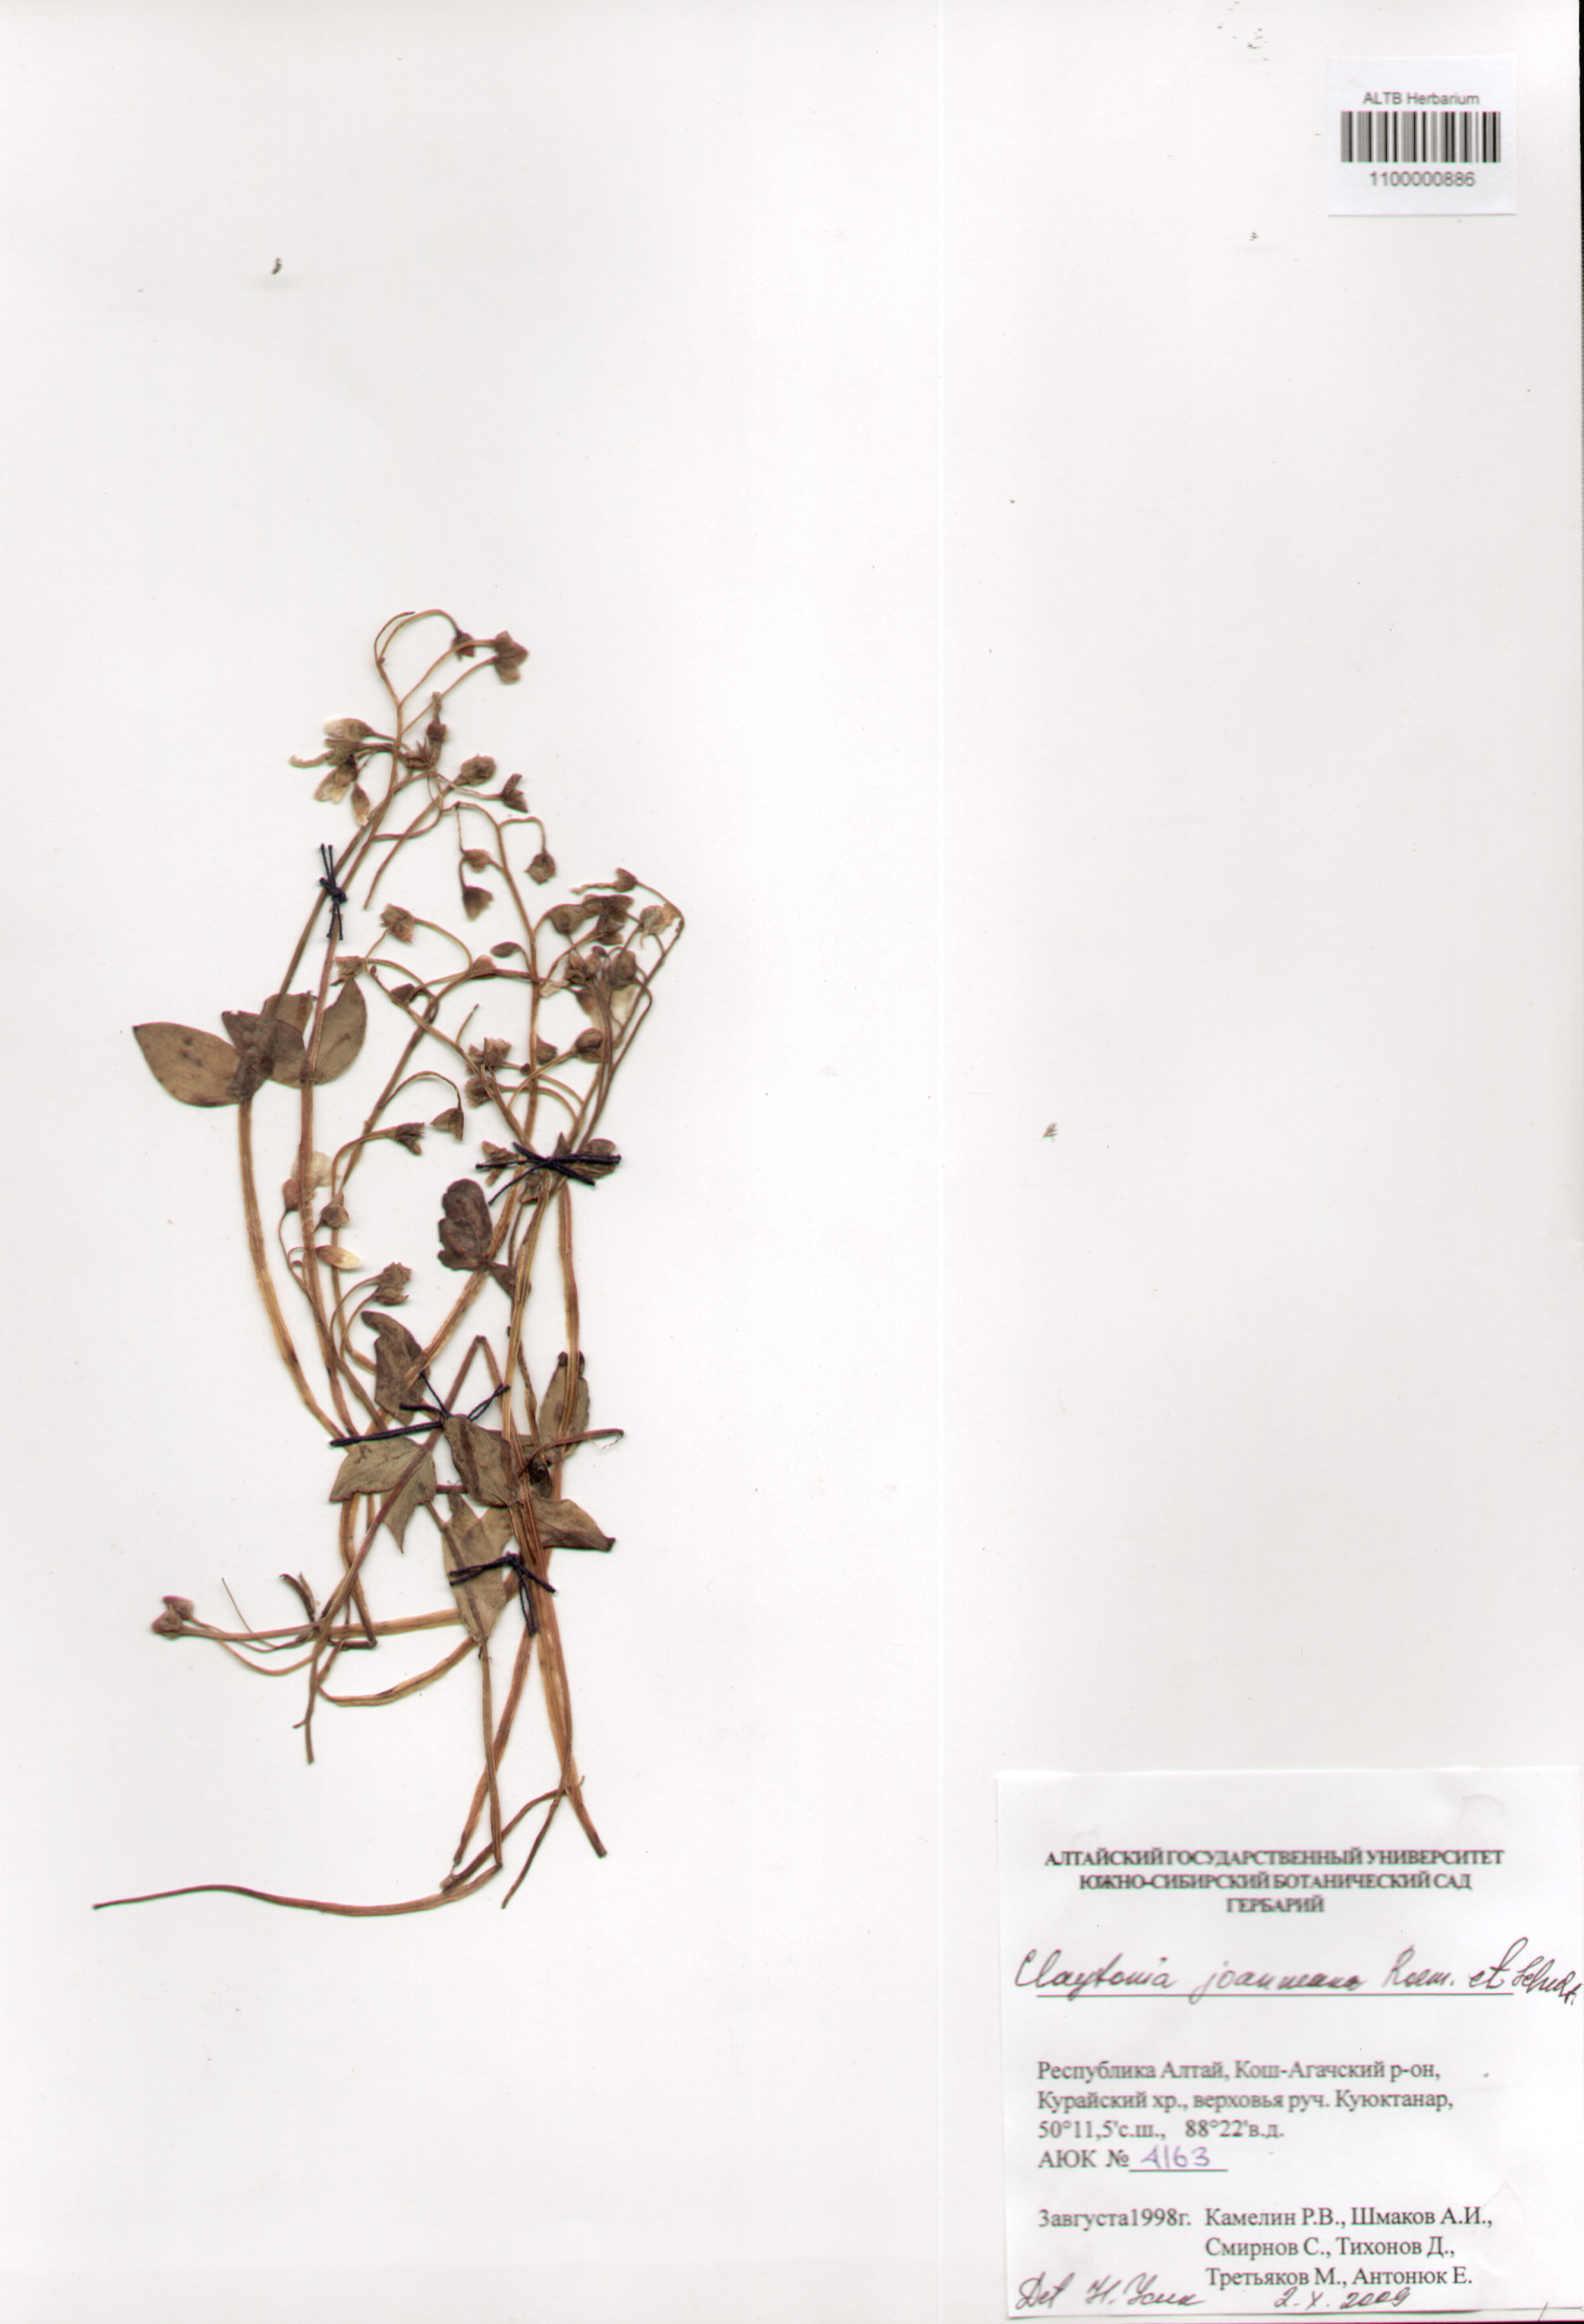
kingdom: Plantae
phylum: Tracheophyta
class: Magnoliopsida
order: Caryophyllales
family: Montiaceae
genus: Claytonia
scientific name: Claytonia joanneana
